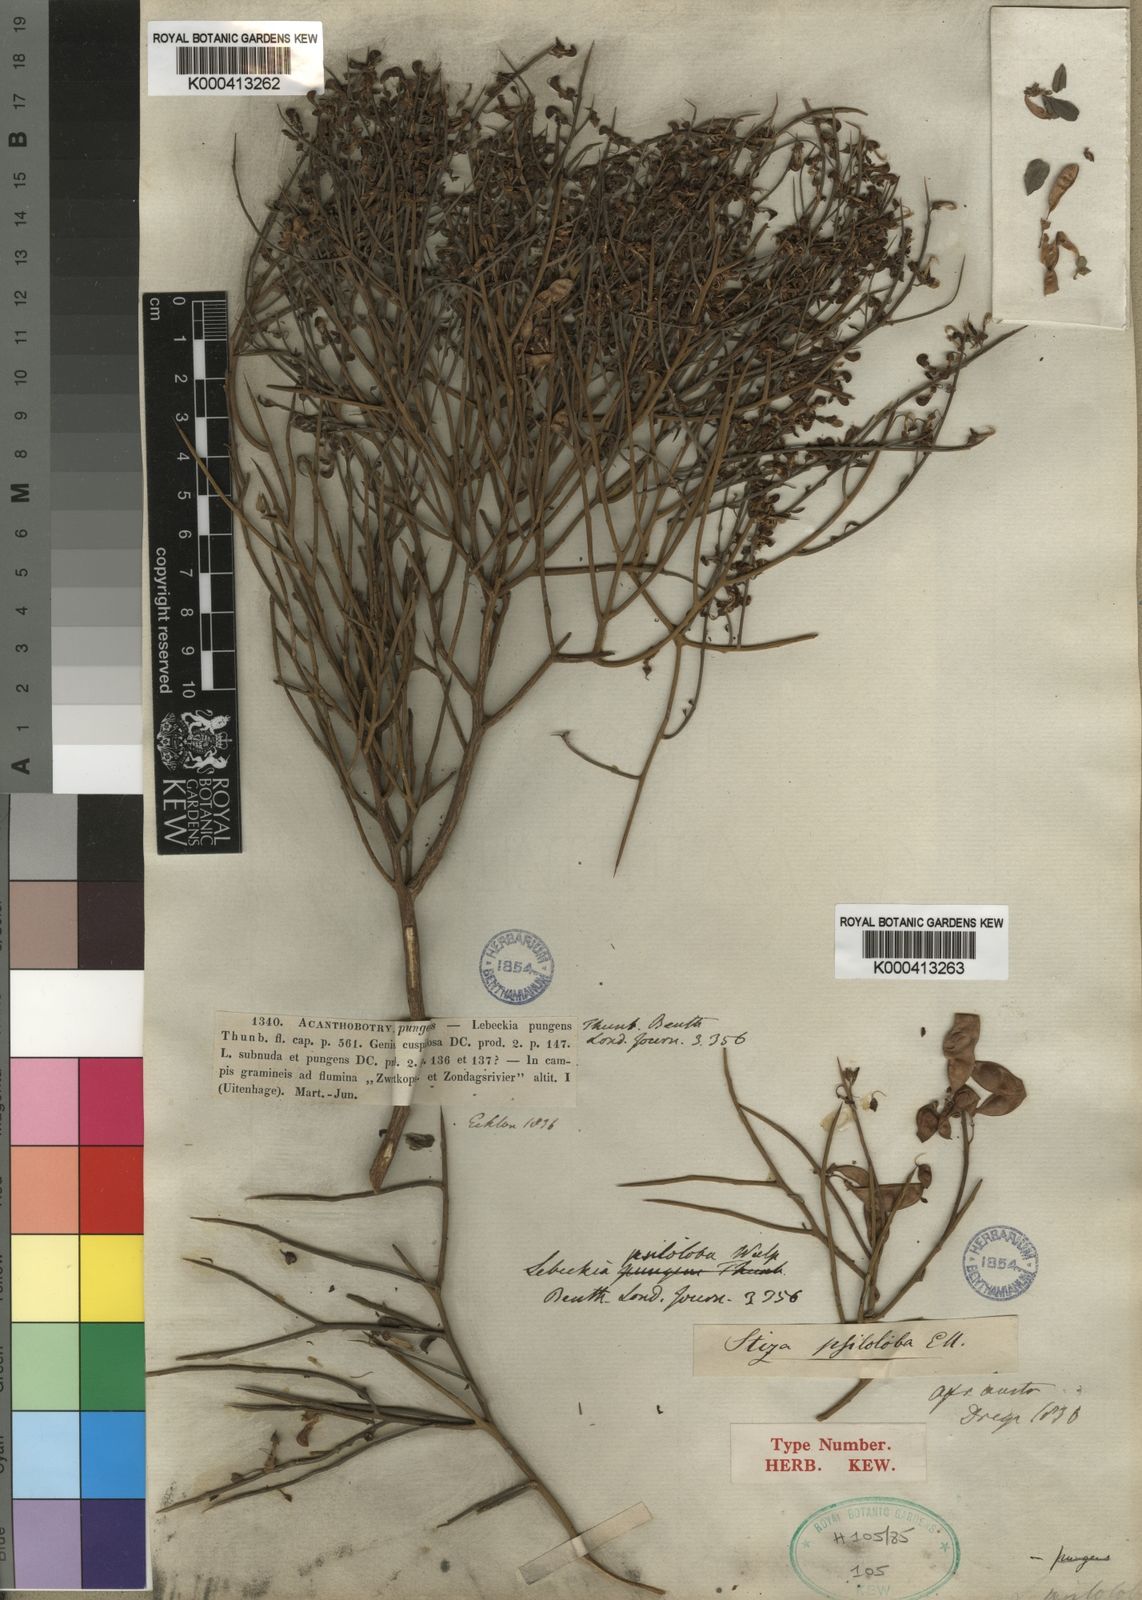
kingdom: Plantae
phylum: Tracheophyta
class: Magnoliopsida
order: Fabales
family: Fabaceae
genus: Calobota
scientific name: Calobota psiloloba
